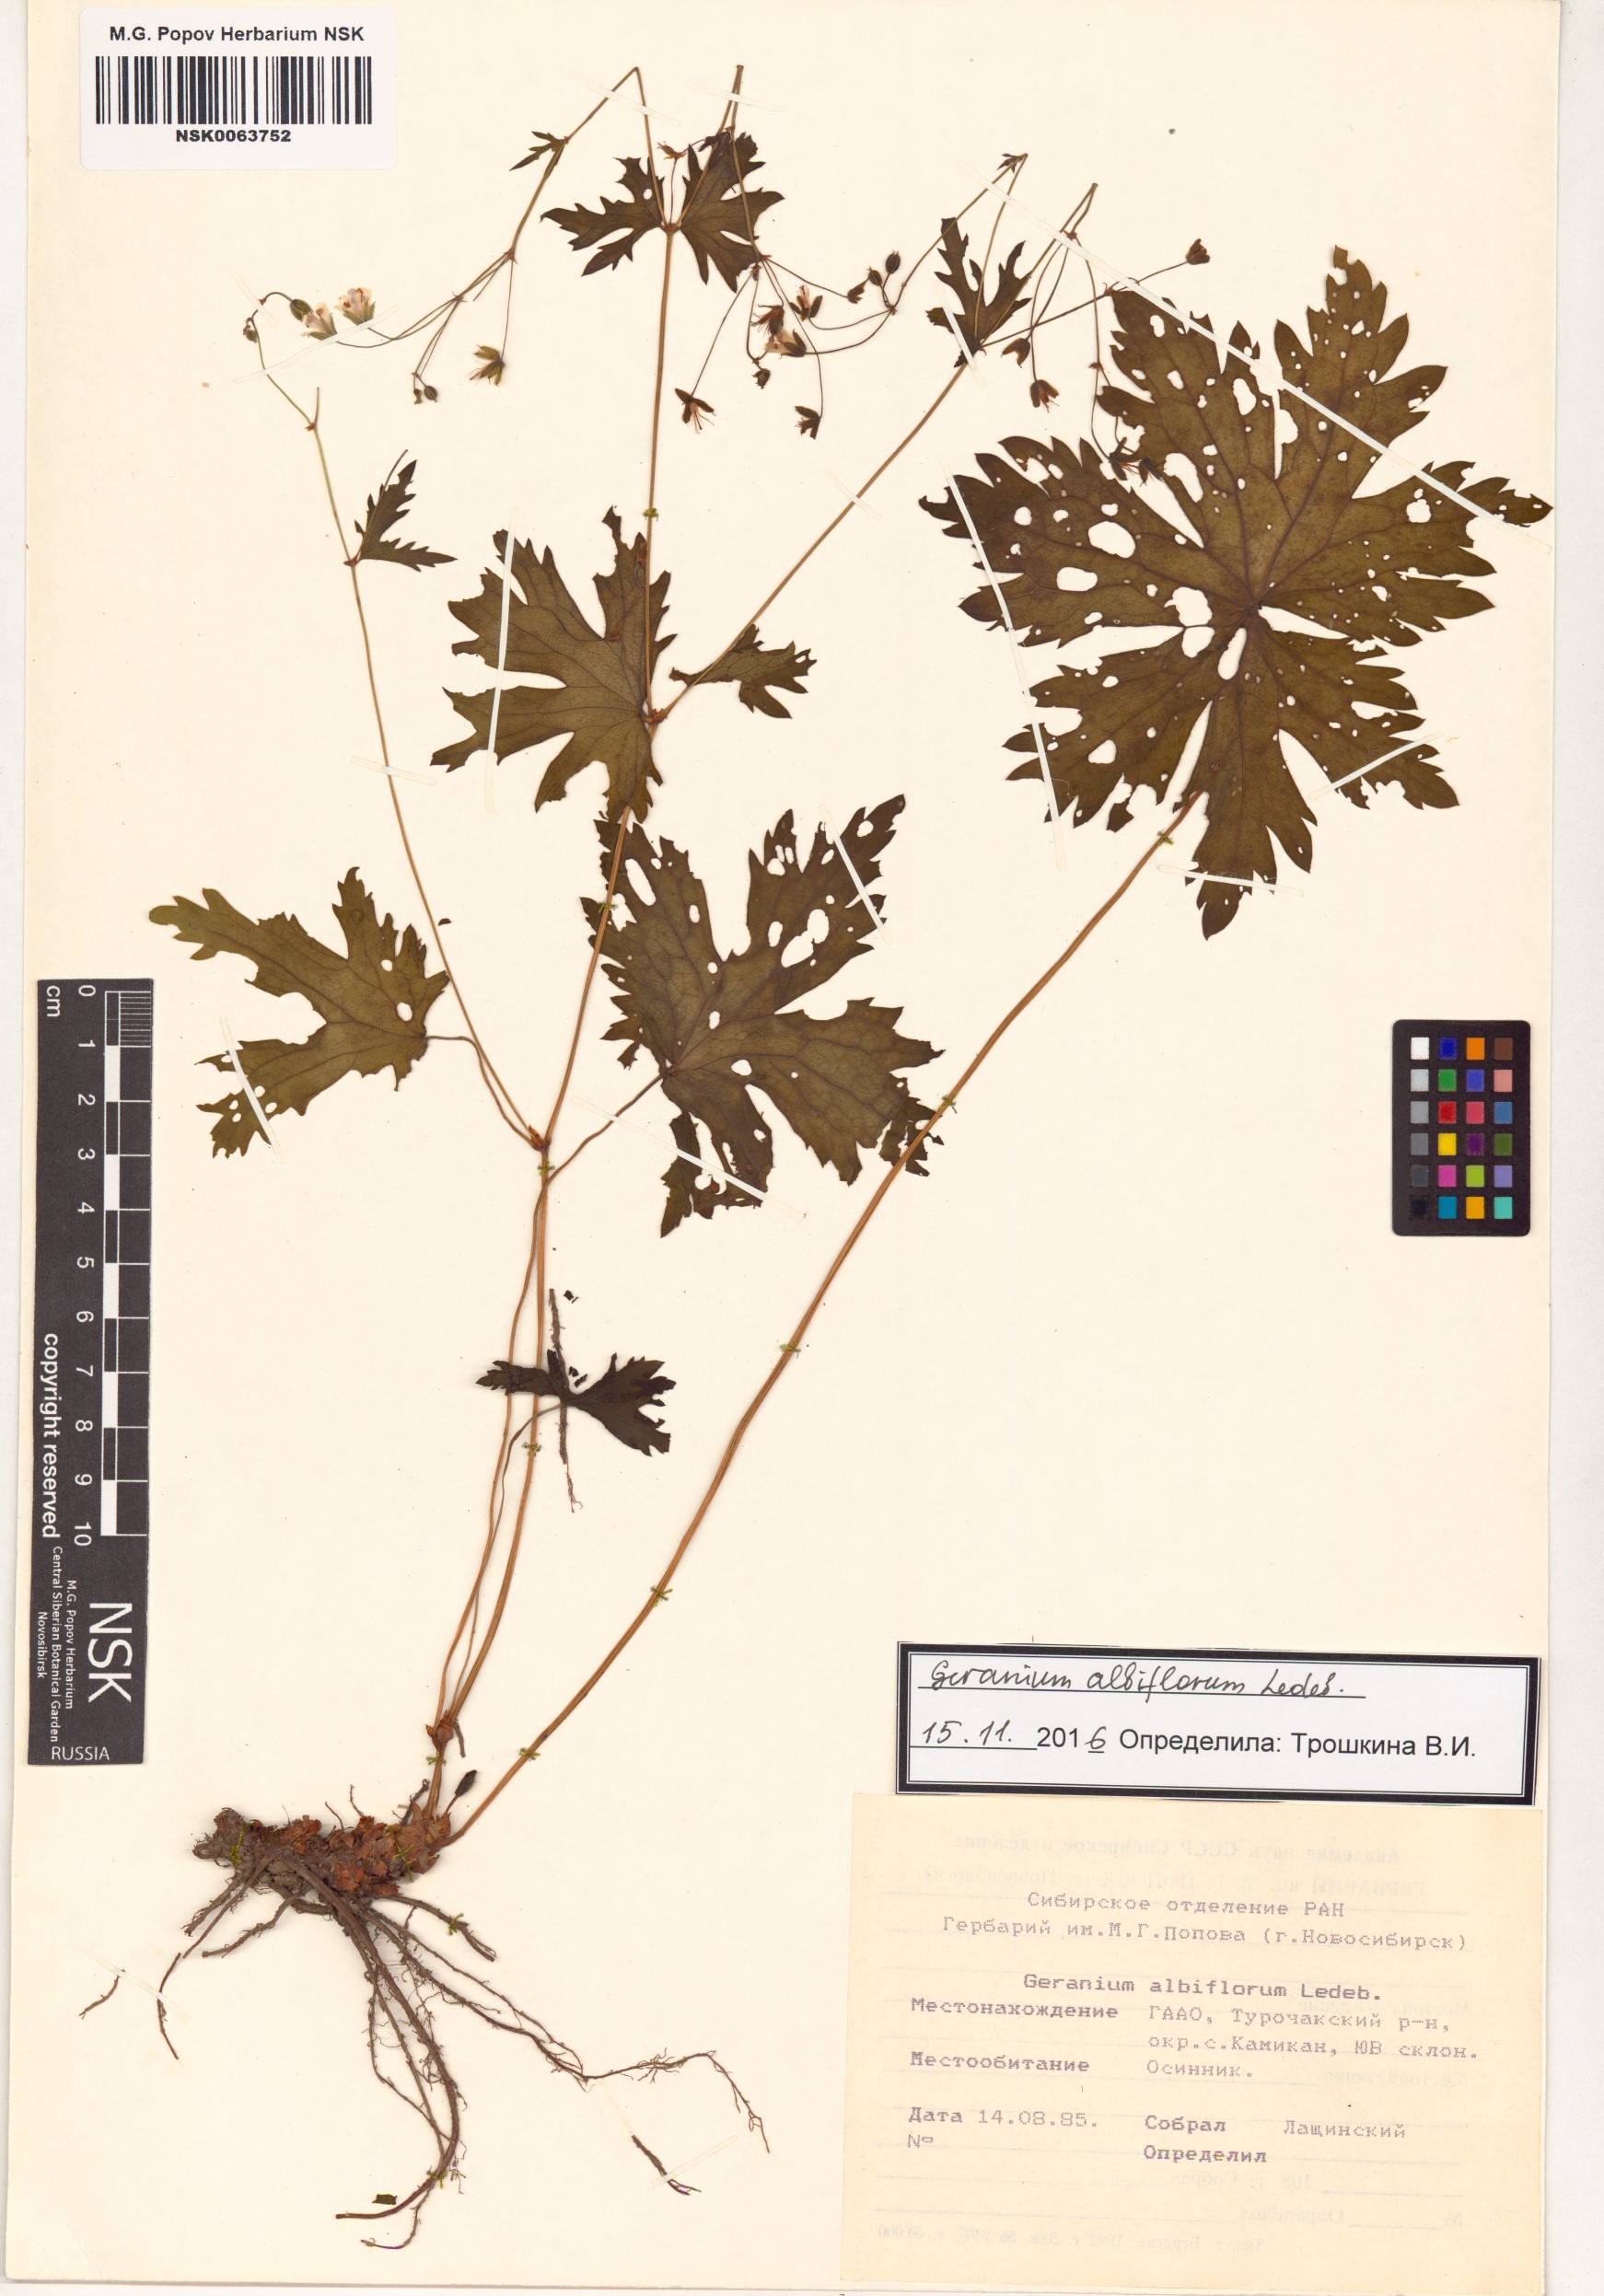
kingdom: Plantae
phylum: Tracheophyta
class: Magnoliopsida
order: Geraniales
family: Geraniaceae
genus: Geranium
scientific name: Geranium albiflorum
